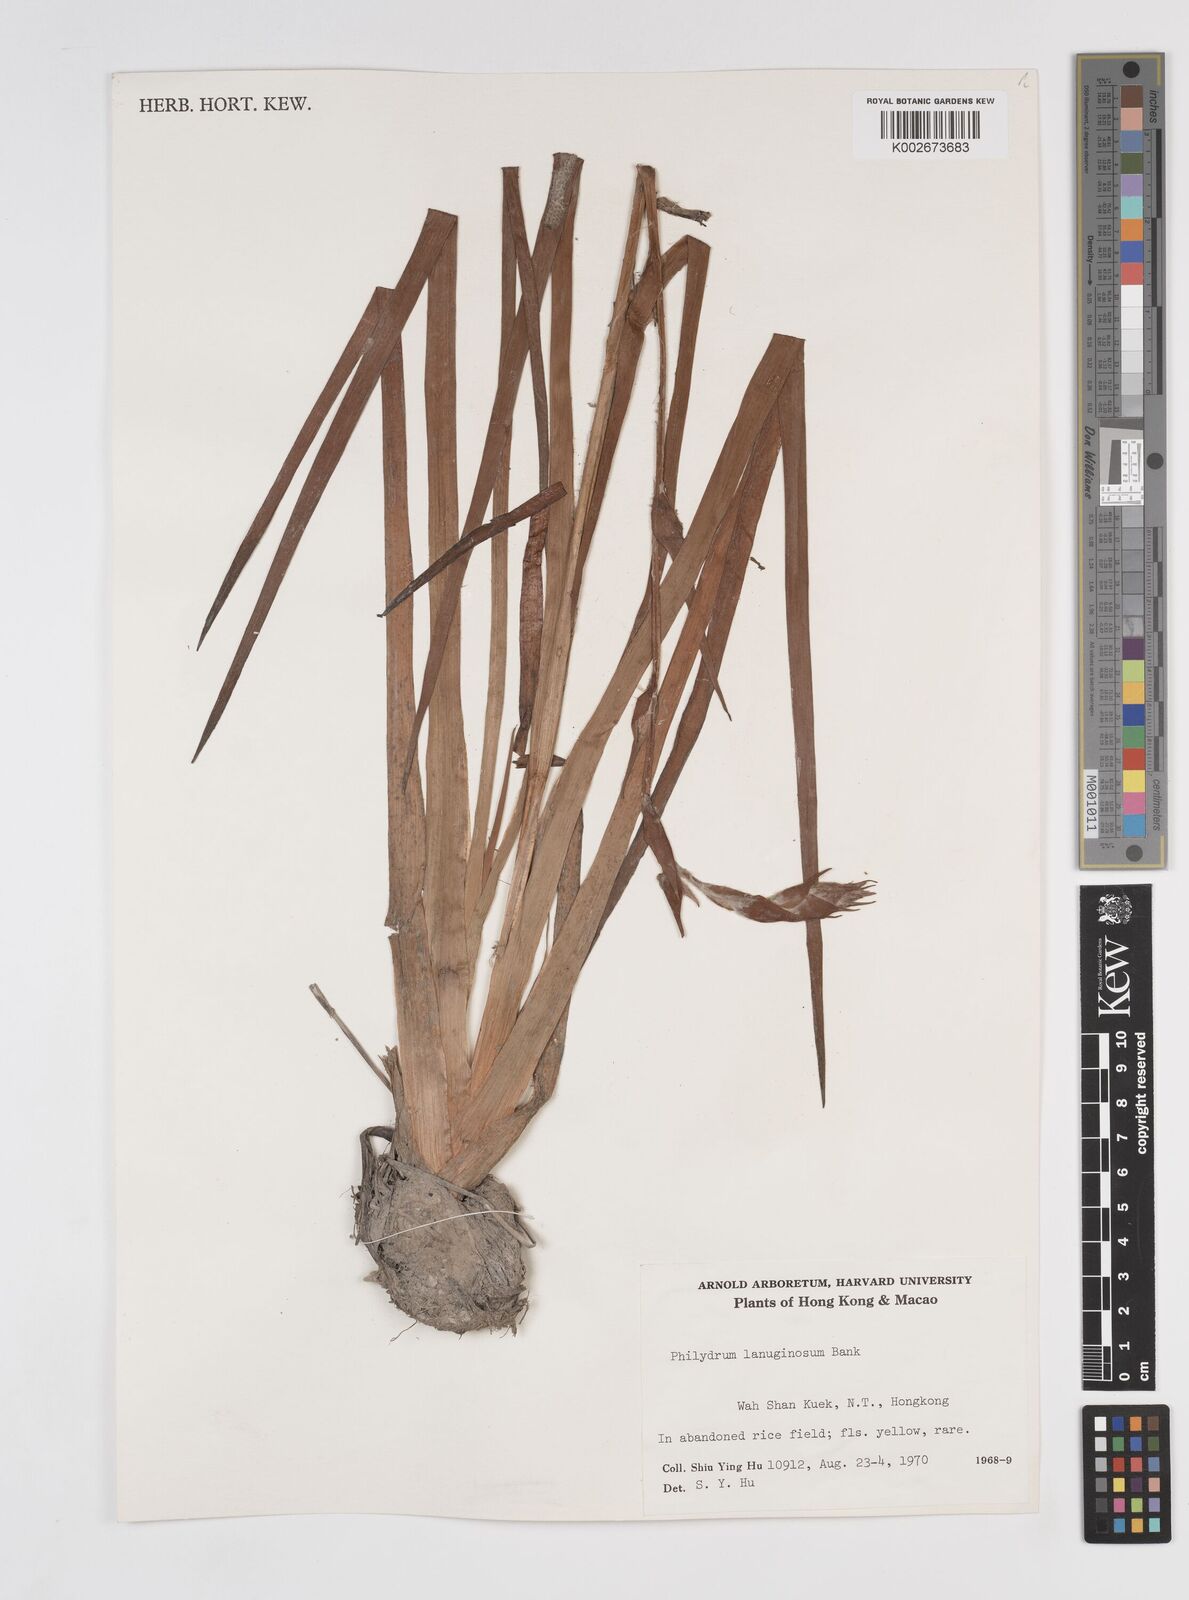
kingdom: Plantae
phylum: Tracheophyta
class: Liliopsida
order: Commelinales
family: Philydraceae
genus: Philydrum
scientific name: Philydrum lanuginosum
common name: Woolly frog's mouth
